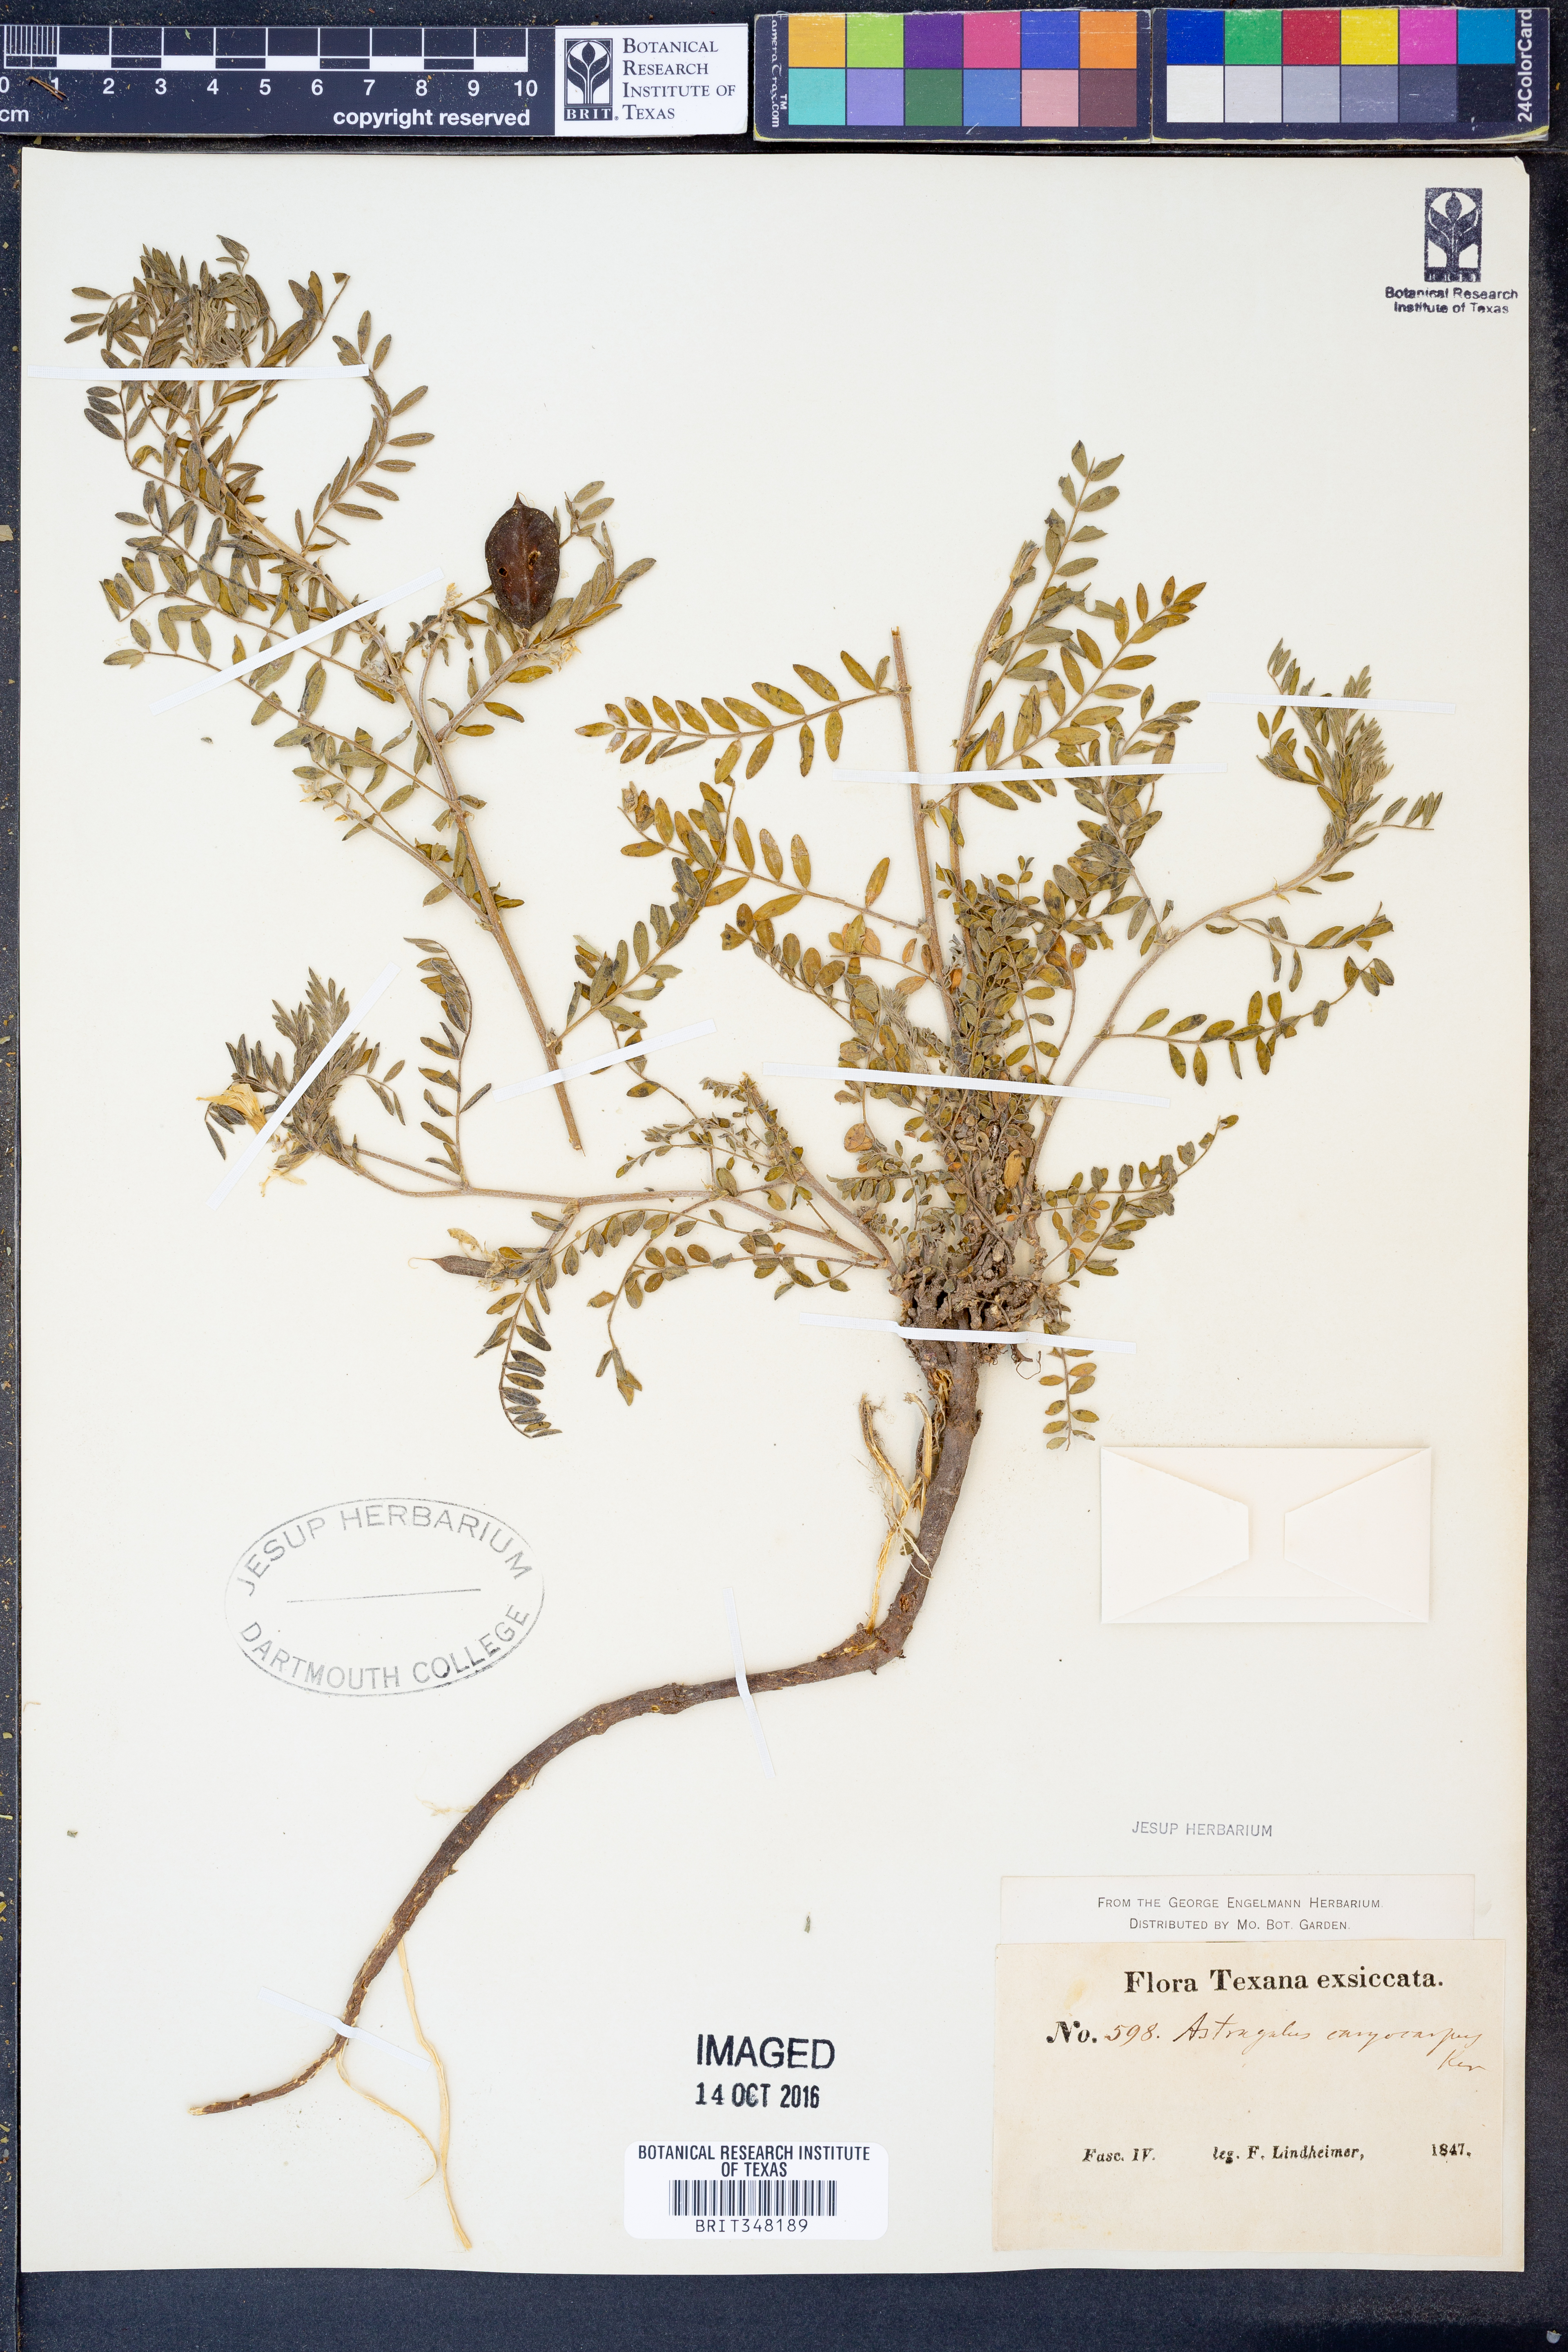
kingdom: Plantae
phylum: Tracheophyta
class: Magnoliopsida
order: Fabales
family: Fabaceae
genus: Astragalus
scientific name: Astragalus crassicarpus
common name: Ground-plum milk-vetch
